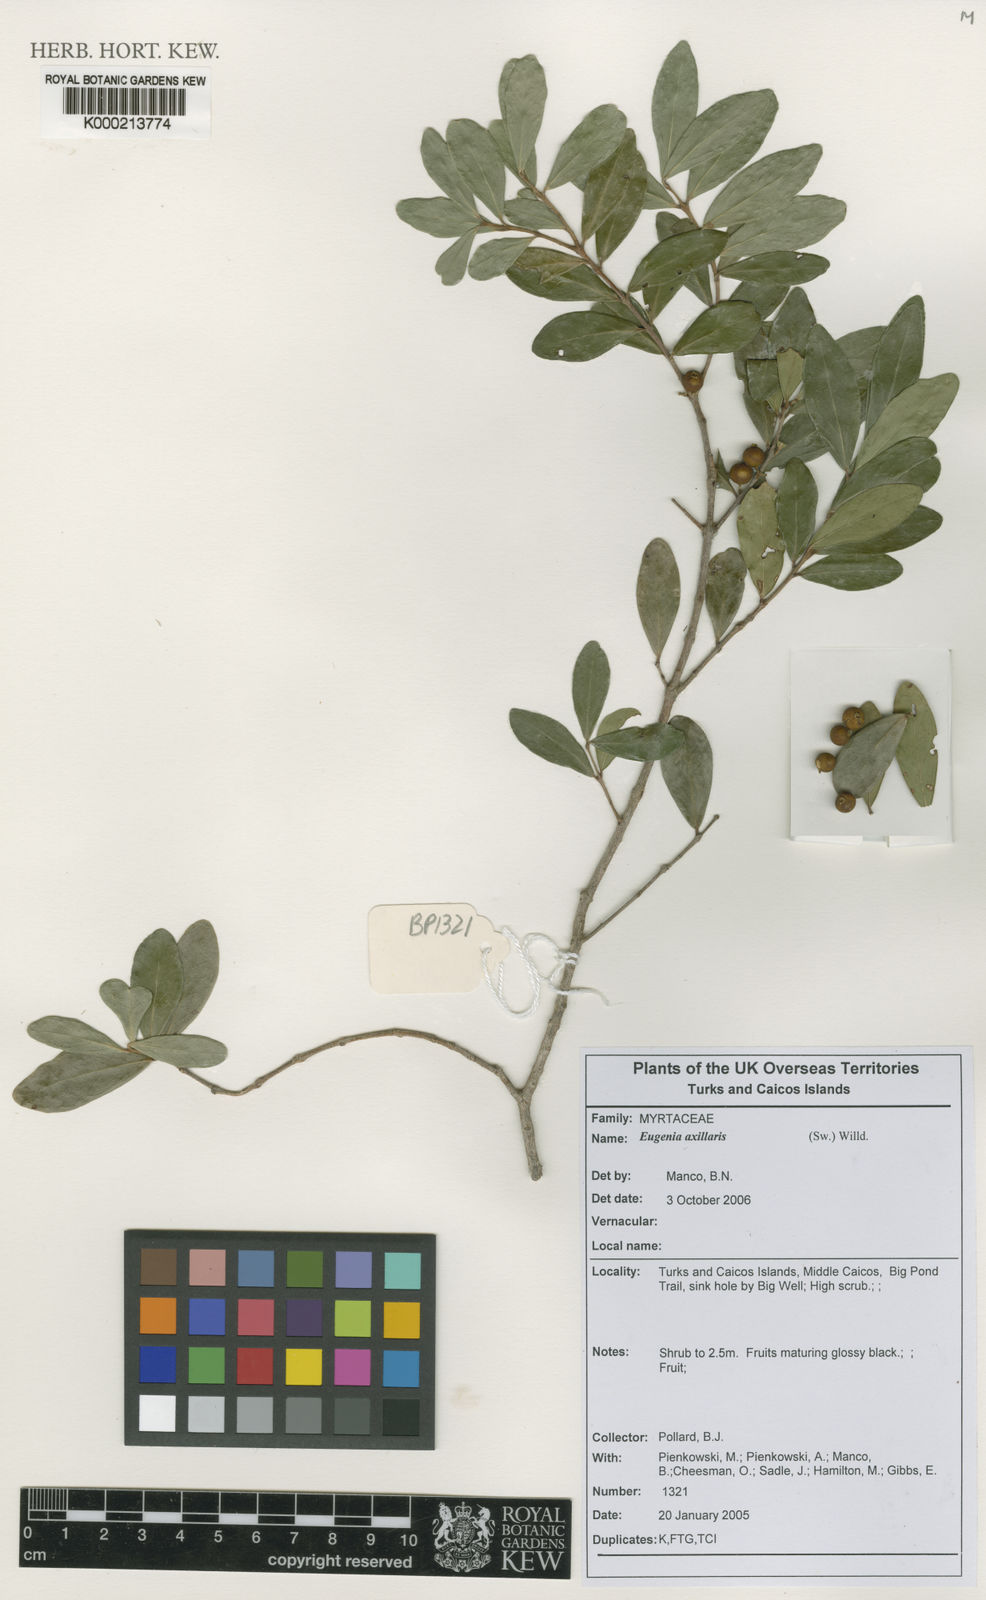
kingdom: Plantae
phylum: Tracheophyta
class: Magnoliopsida
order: Myrtales
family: Myrtaceae
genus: Eugenia
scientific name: Eugenia foetida
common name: White wattling
